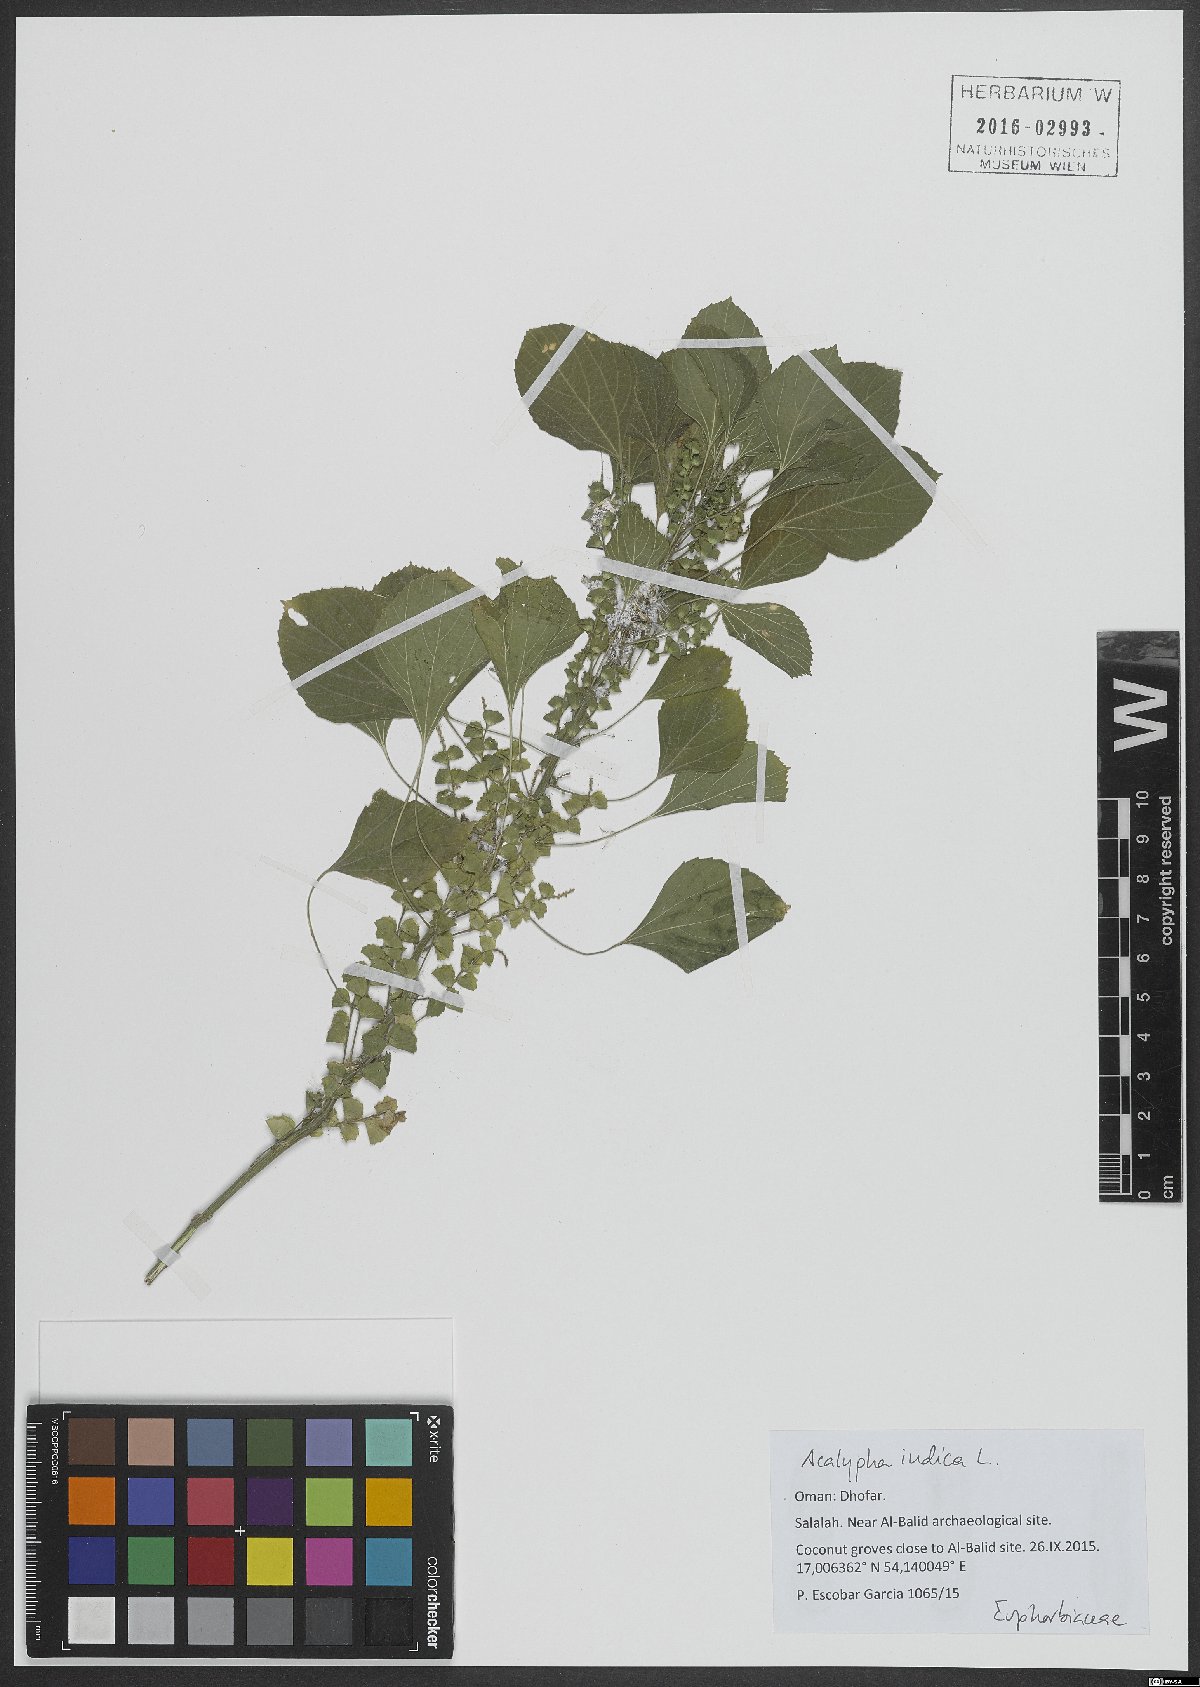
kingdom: Plantae
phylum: Tracheophyta
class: Magnoliopsida
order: Malpighiales
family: Euphorbiaceae
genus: Acalypha
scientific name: Acalypha indica
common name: Indian acalypha
